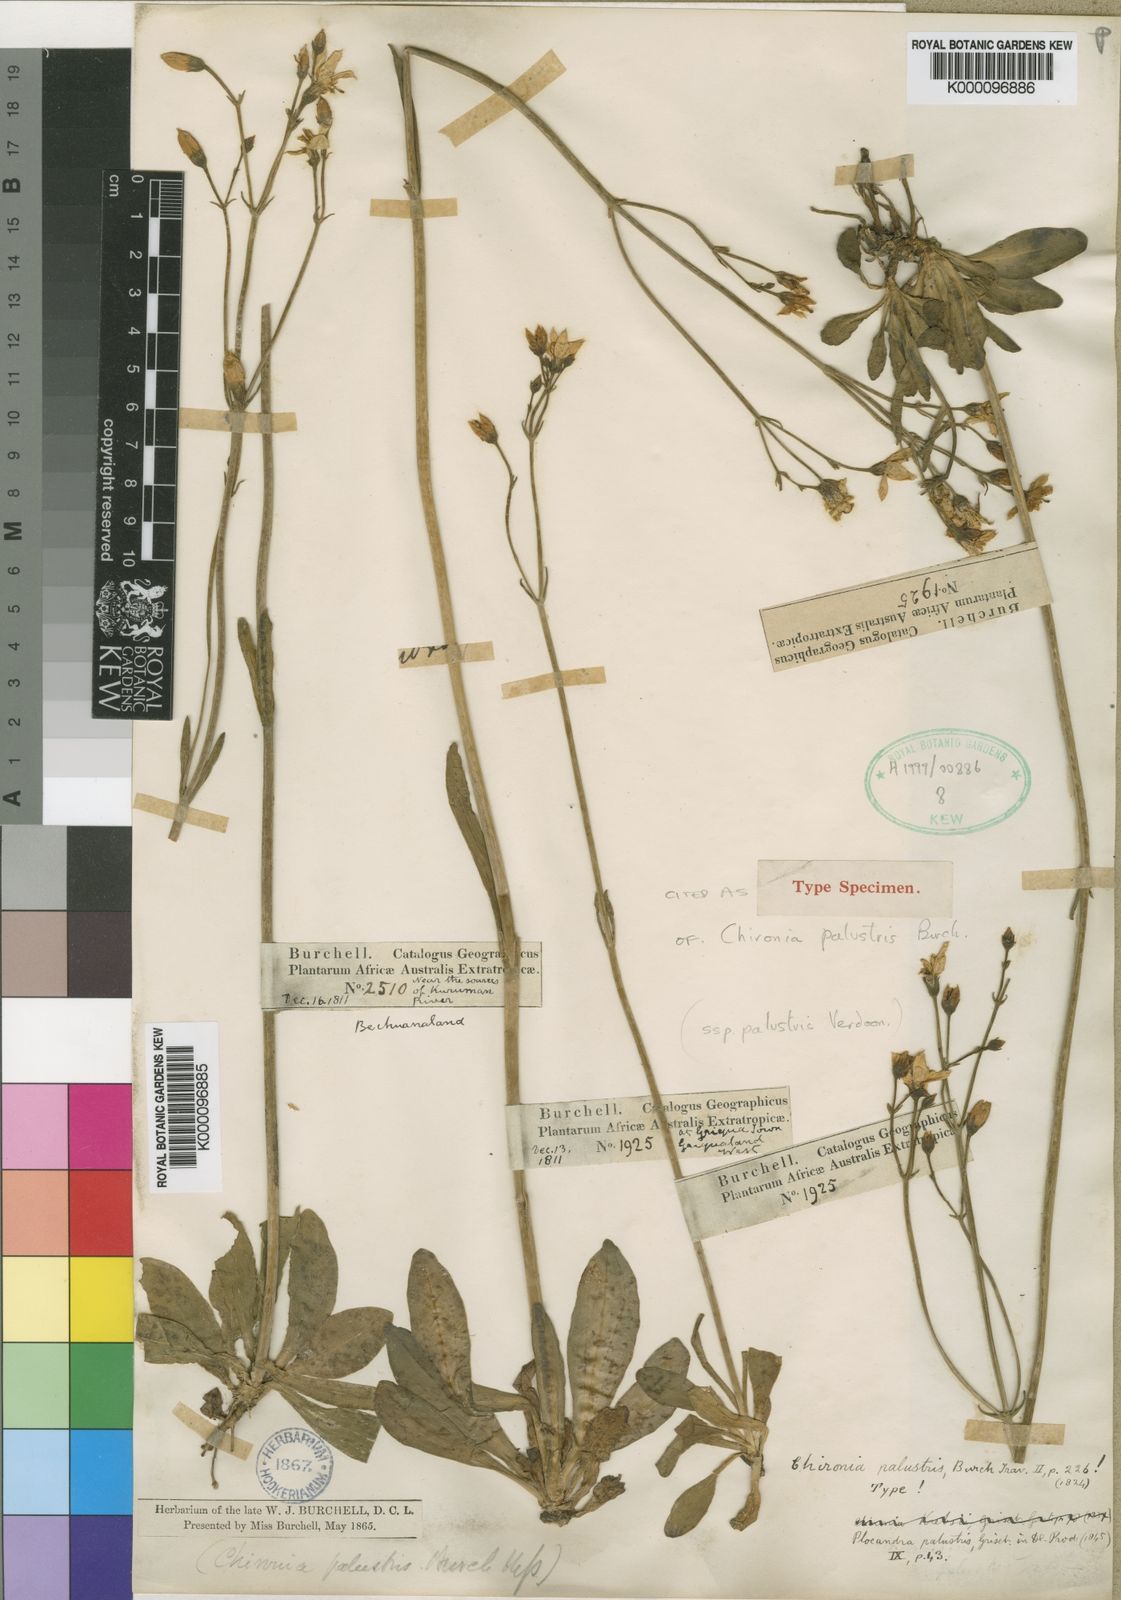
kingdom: Plantae
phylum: Tracheophyta
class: Magnoliopsida
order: Gentianales
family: Gentianaceae
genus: Chironia
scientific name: Chironia palustris
